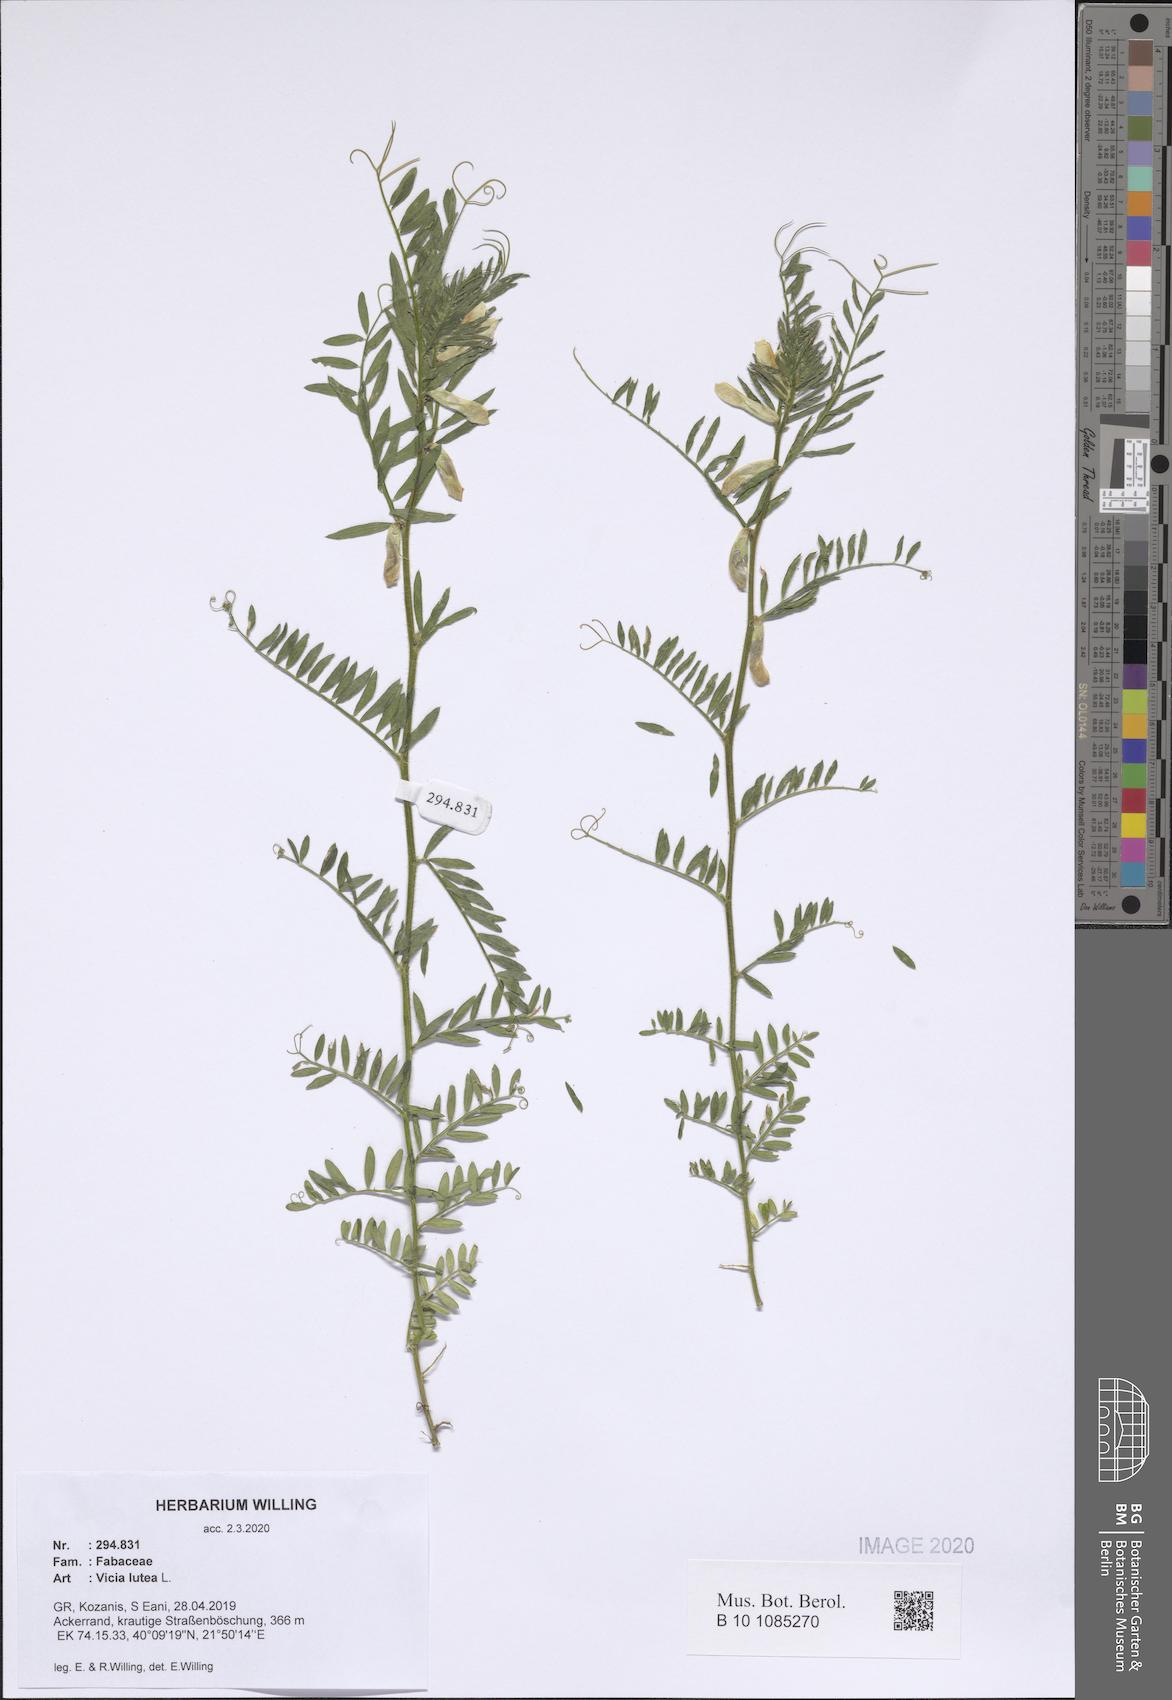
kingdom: Plantae
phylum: Tracheophyta
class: Magnoliopsida
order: Fabales
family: Fabaceae
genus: Vicia
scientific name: Vicia lutea
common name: Smooth yellow vetch
